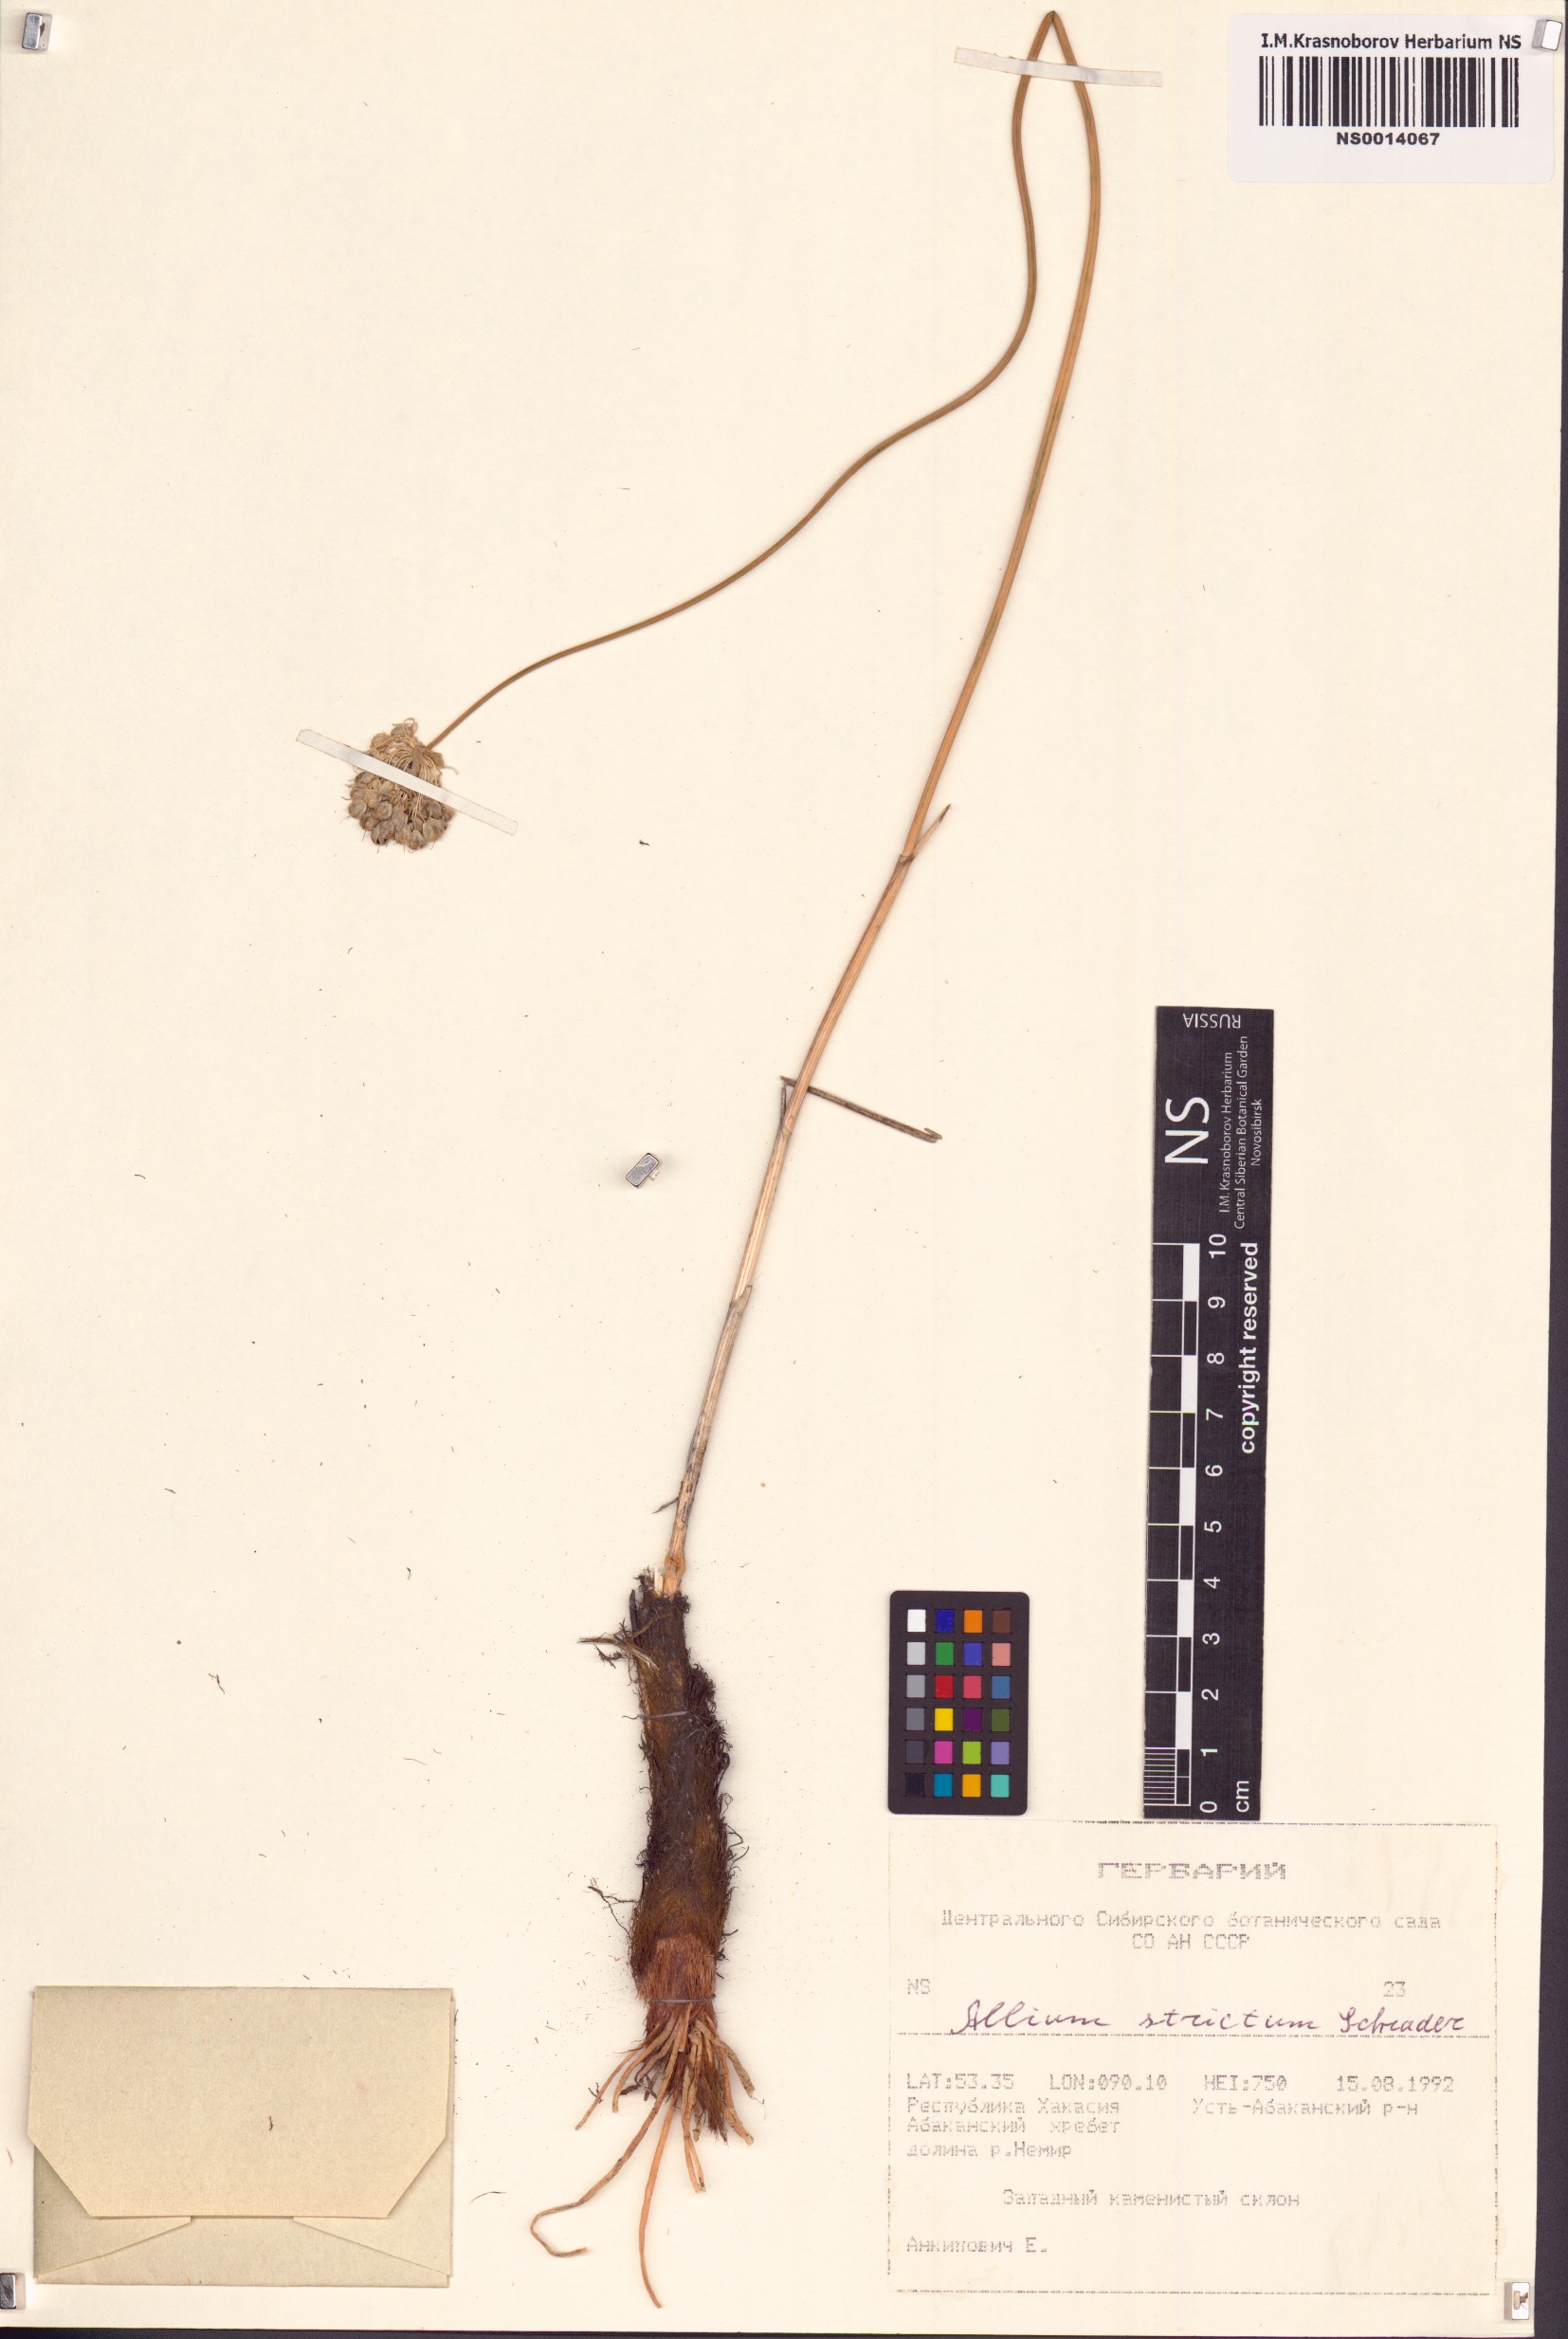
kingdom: Plantae
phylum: Tracheophyta
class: Liliopsida
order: Asparagales
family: Amaryllidaceae
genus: Allium
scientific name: Allium strictum
